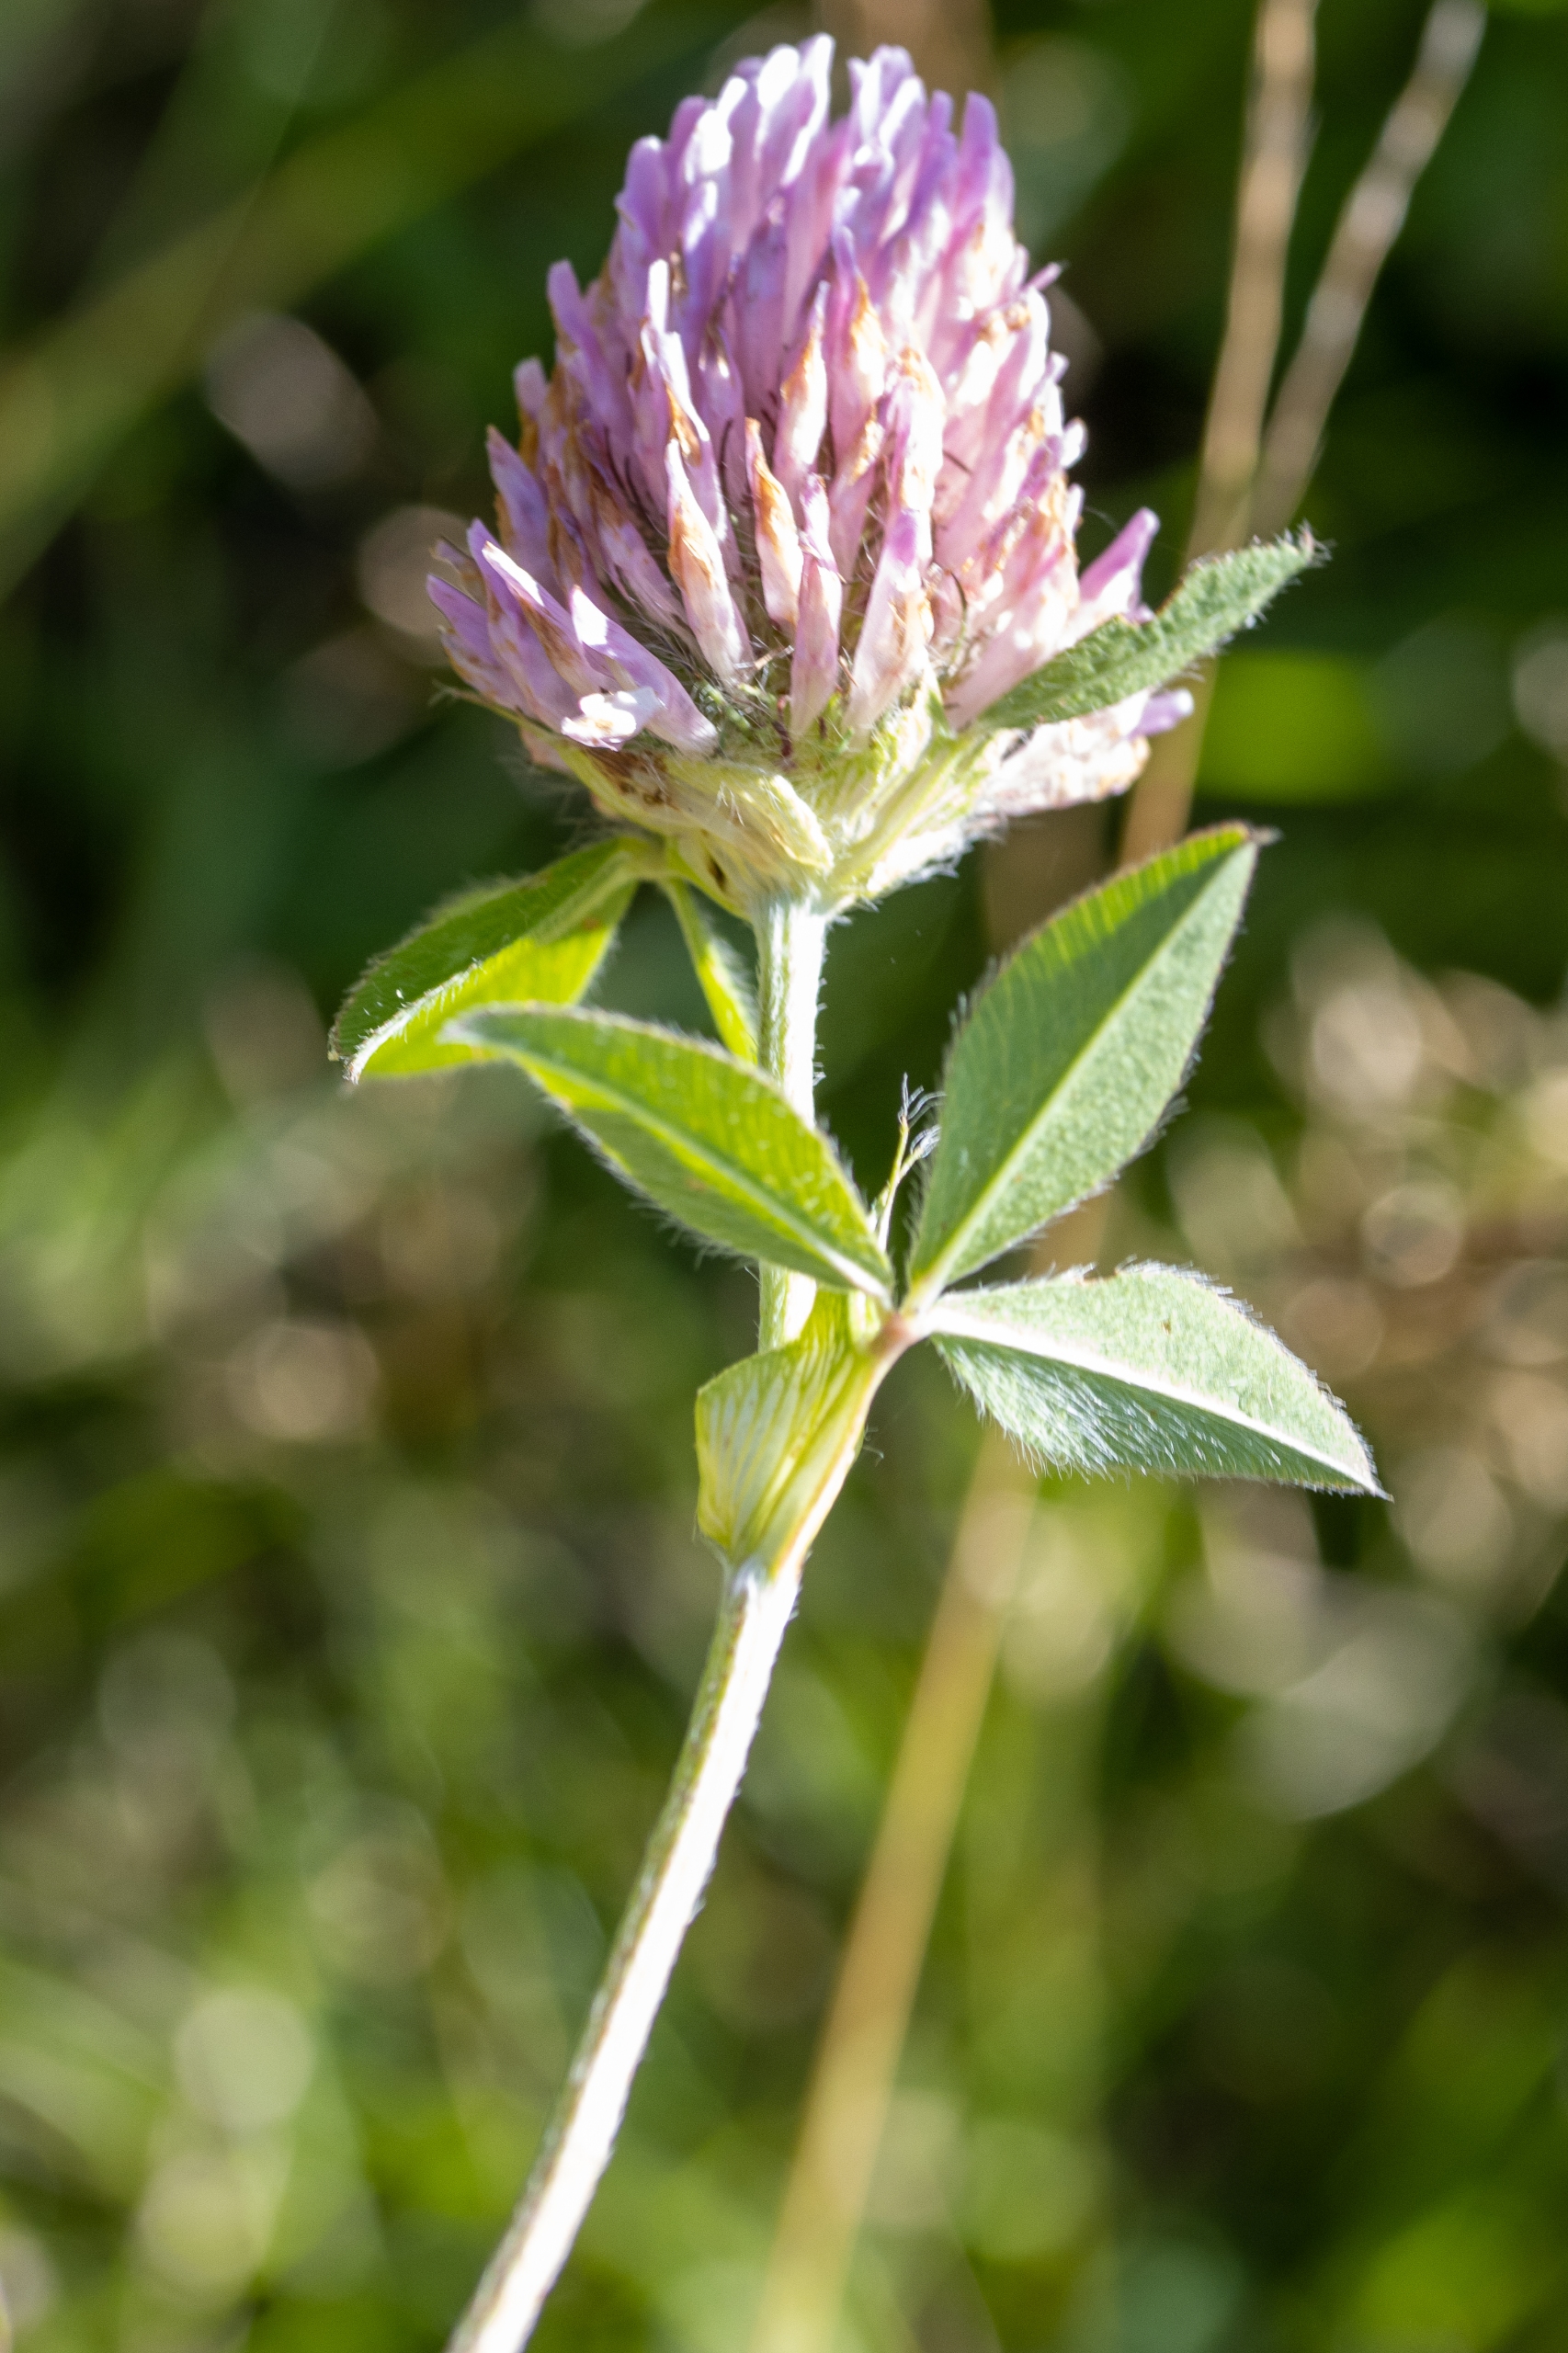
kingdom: Plantae
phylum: Tracheophyta
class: Magnoliopsida
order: Fabales
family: Fabaceae
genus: Trifolium
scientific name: Trifolium pratense
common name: Rød-kløver
